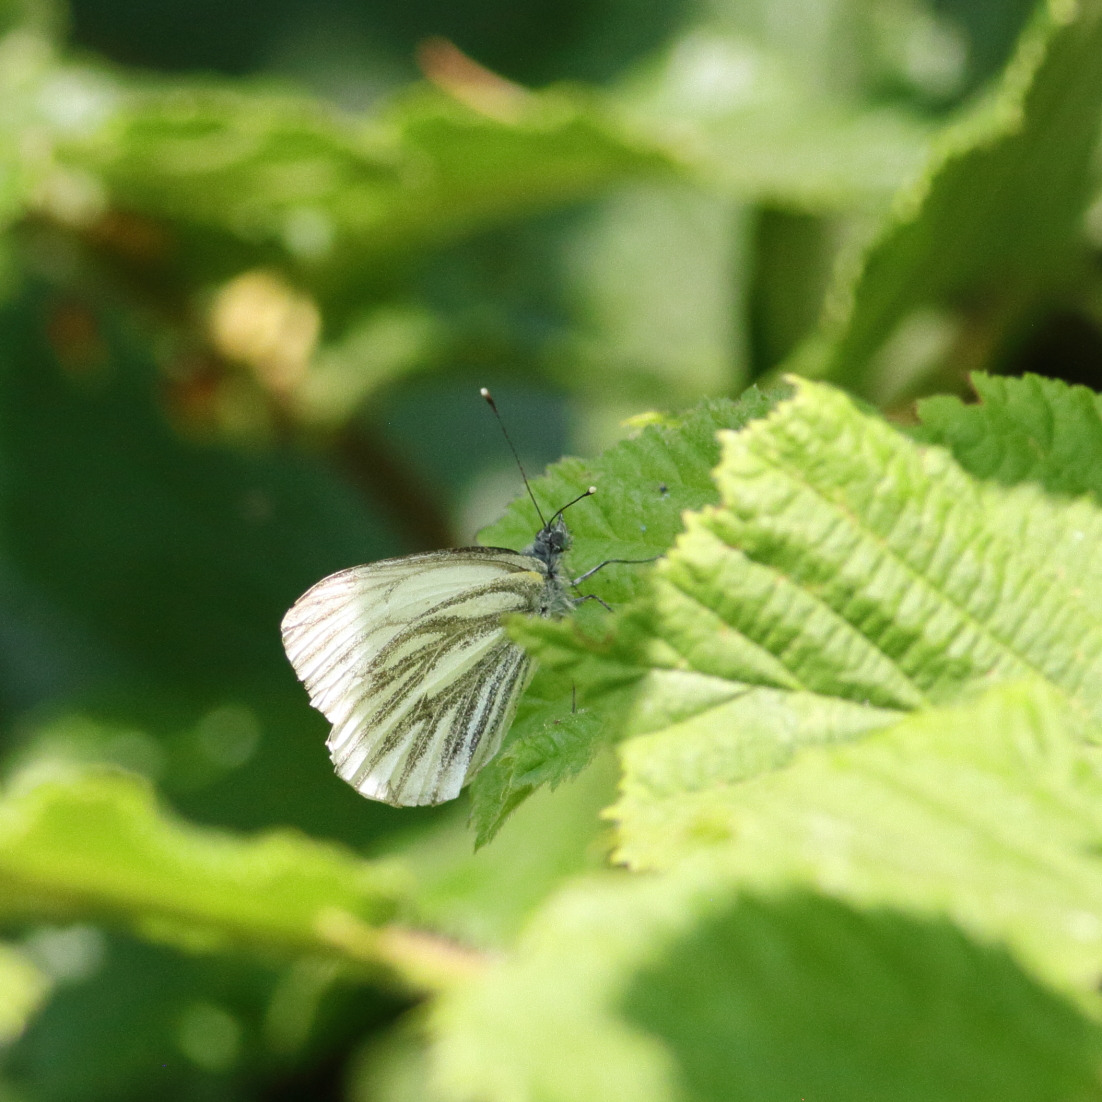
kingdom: Animalia
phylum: Arthropoda
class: Insecta
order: Lepidoptera
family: Pieridae
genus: Pieris
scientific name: Pieris napi
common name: Grønåret kålsommerfugl
